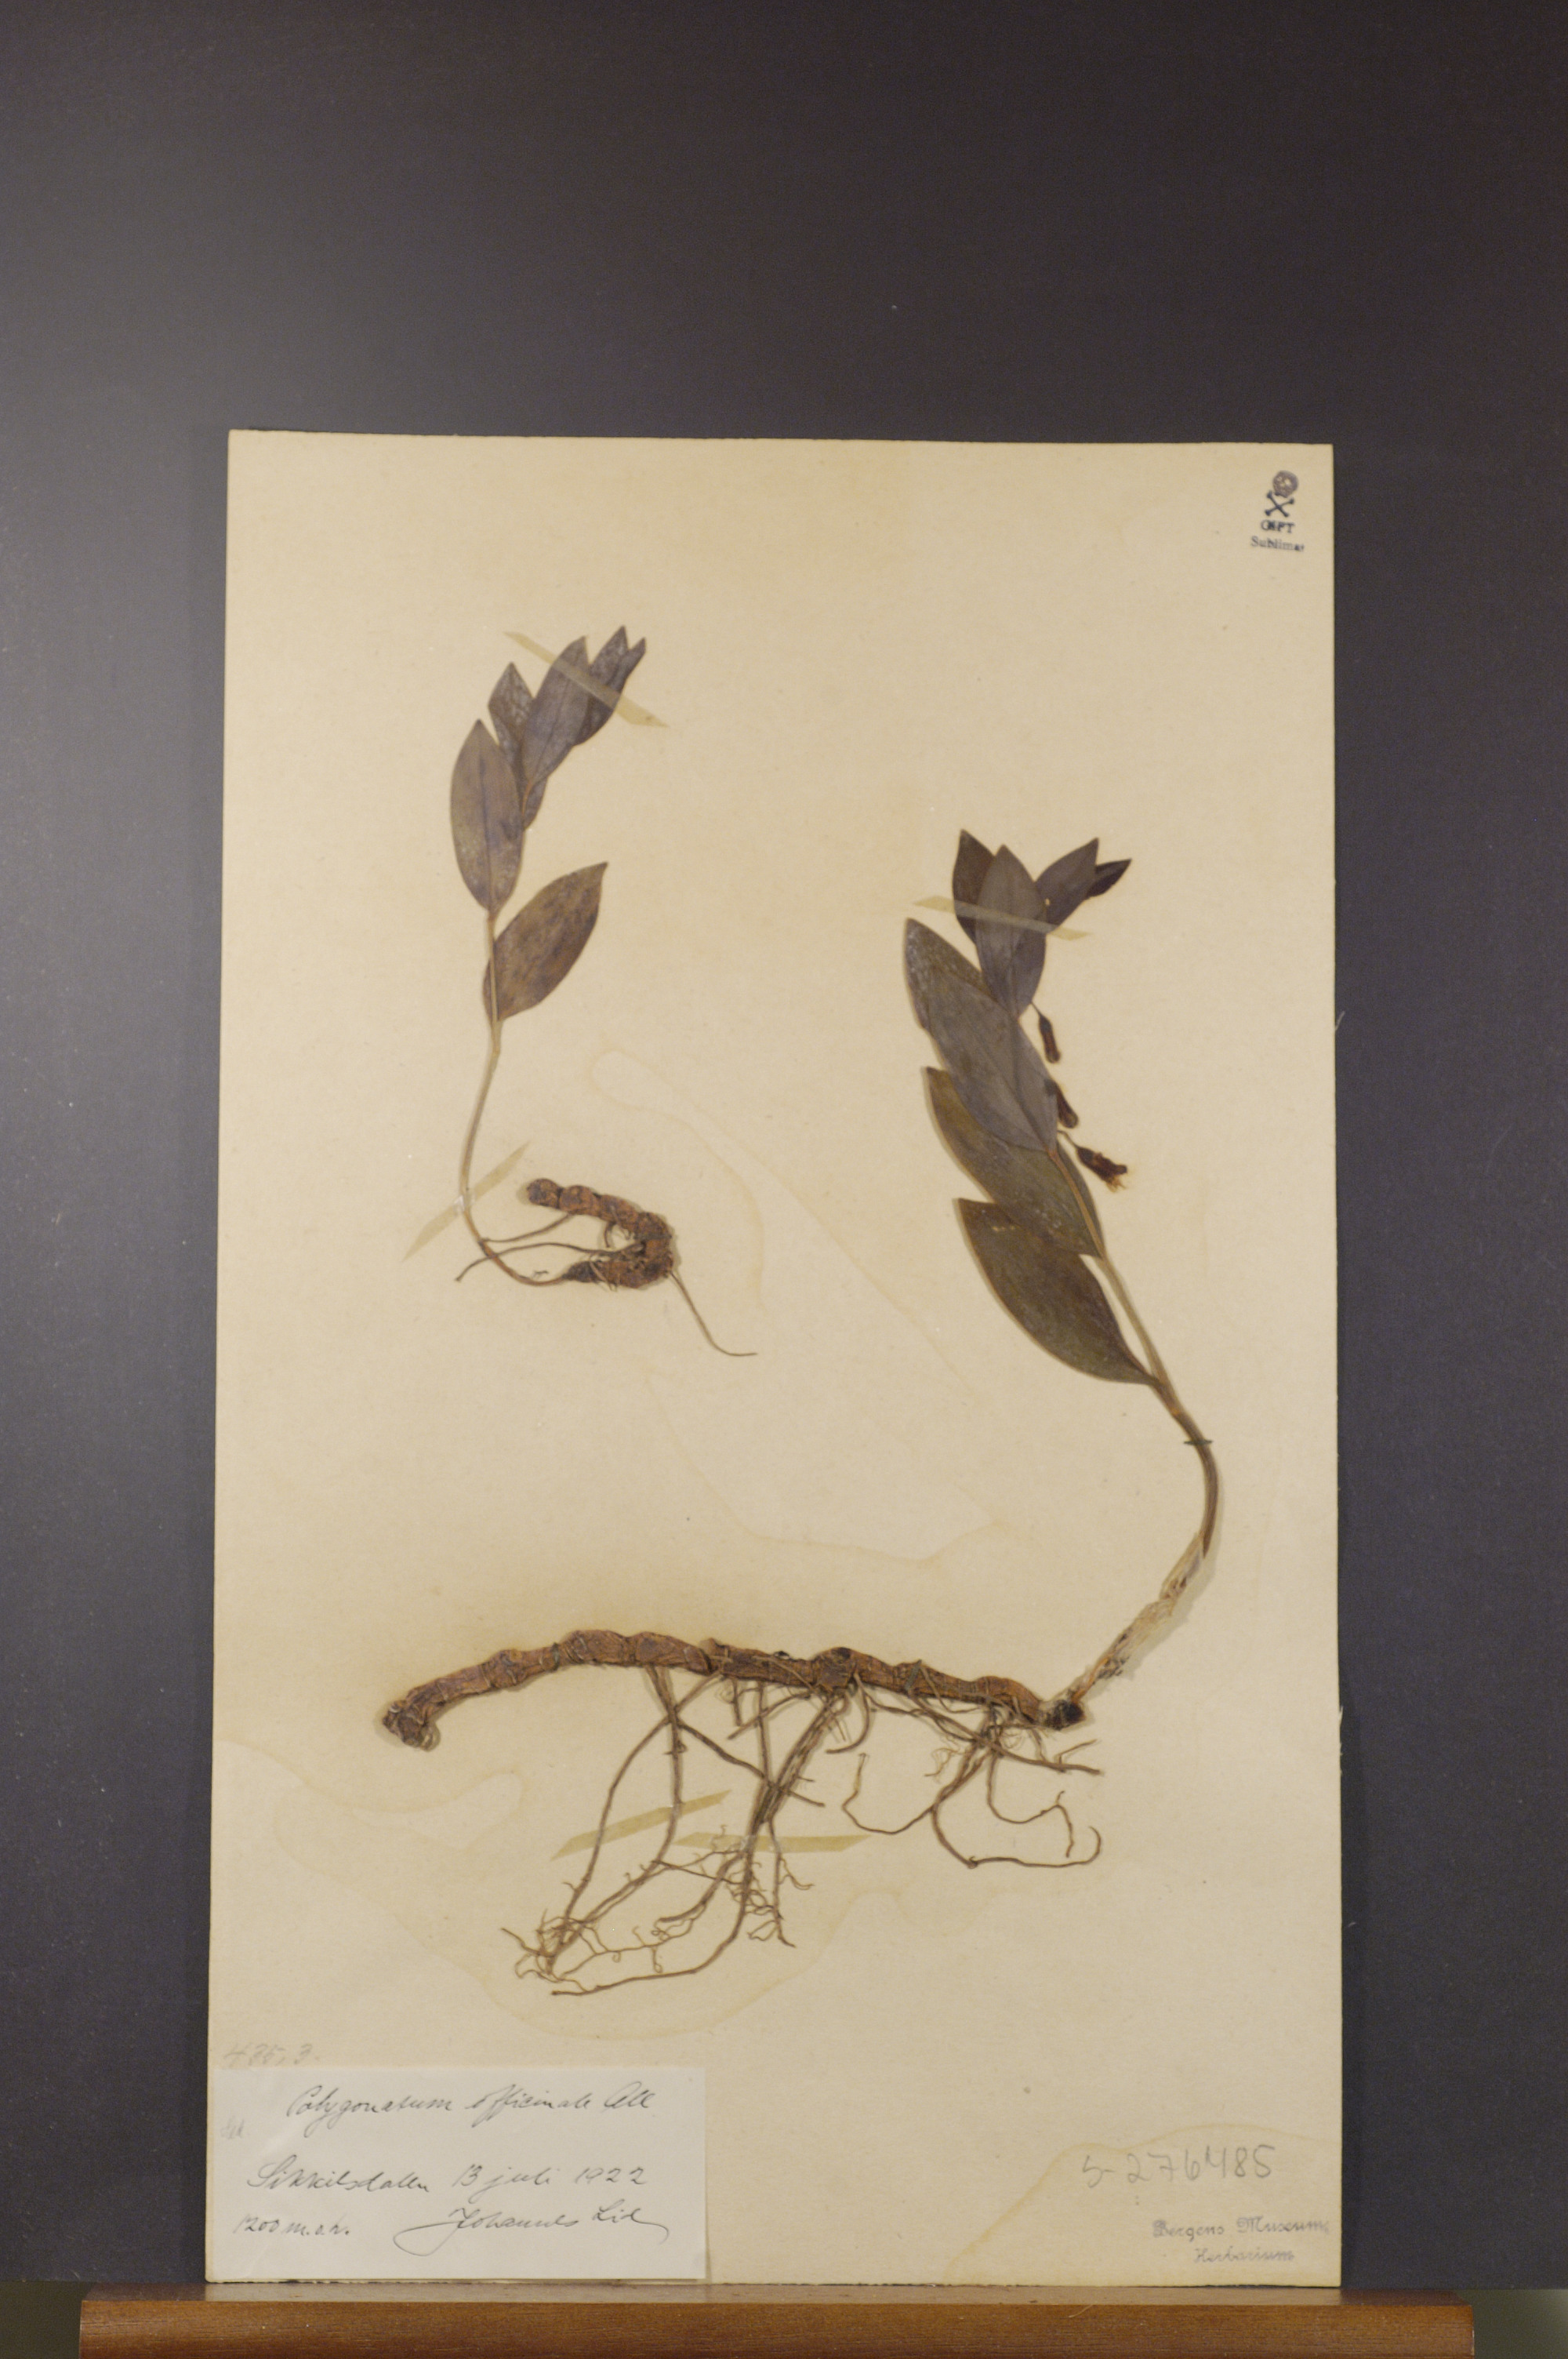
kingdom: Plantae
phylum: Tracheophyta
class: Liliopsida
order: Asparagales
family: Asparagaceae
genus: Polygonatum
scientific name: Polygonatum odoratum
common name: Angular solomon's-seal
